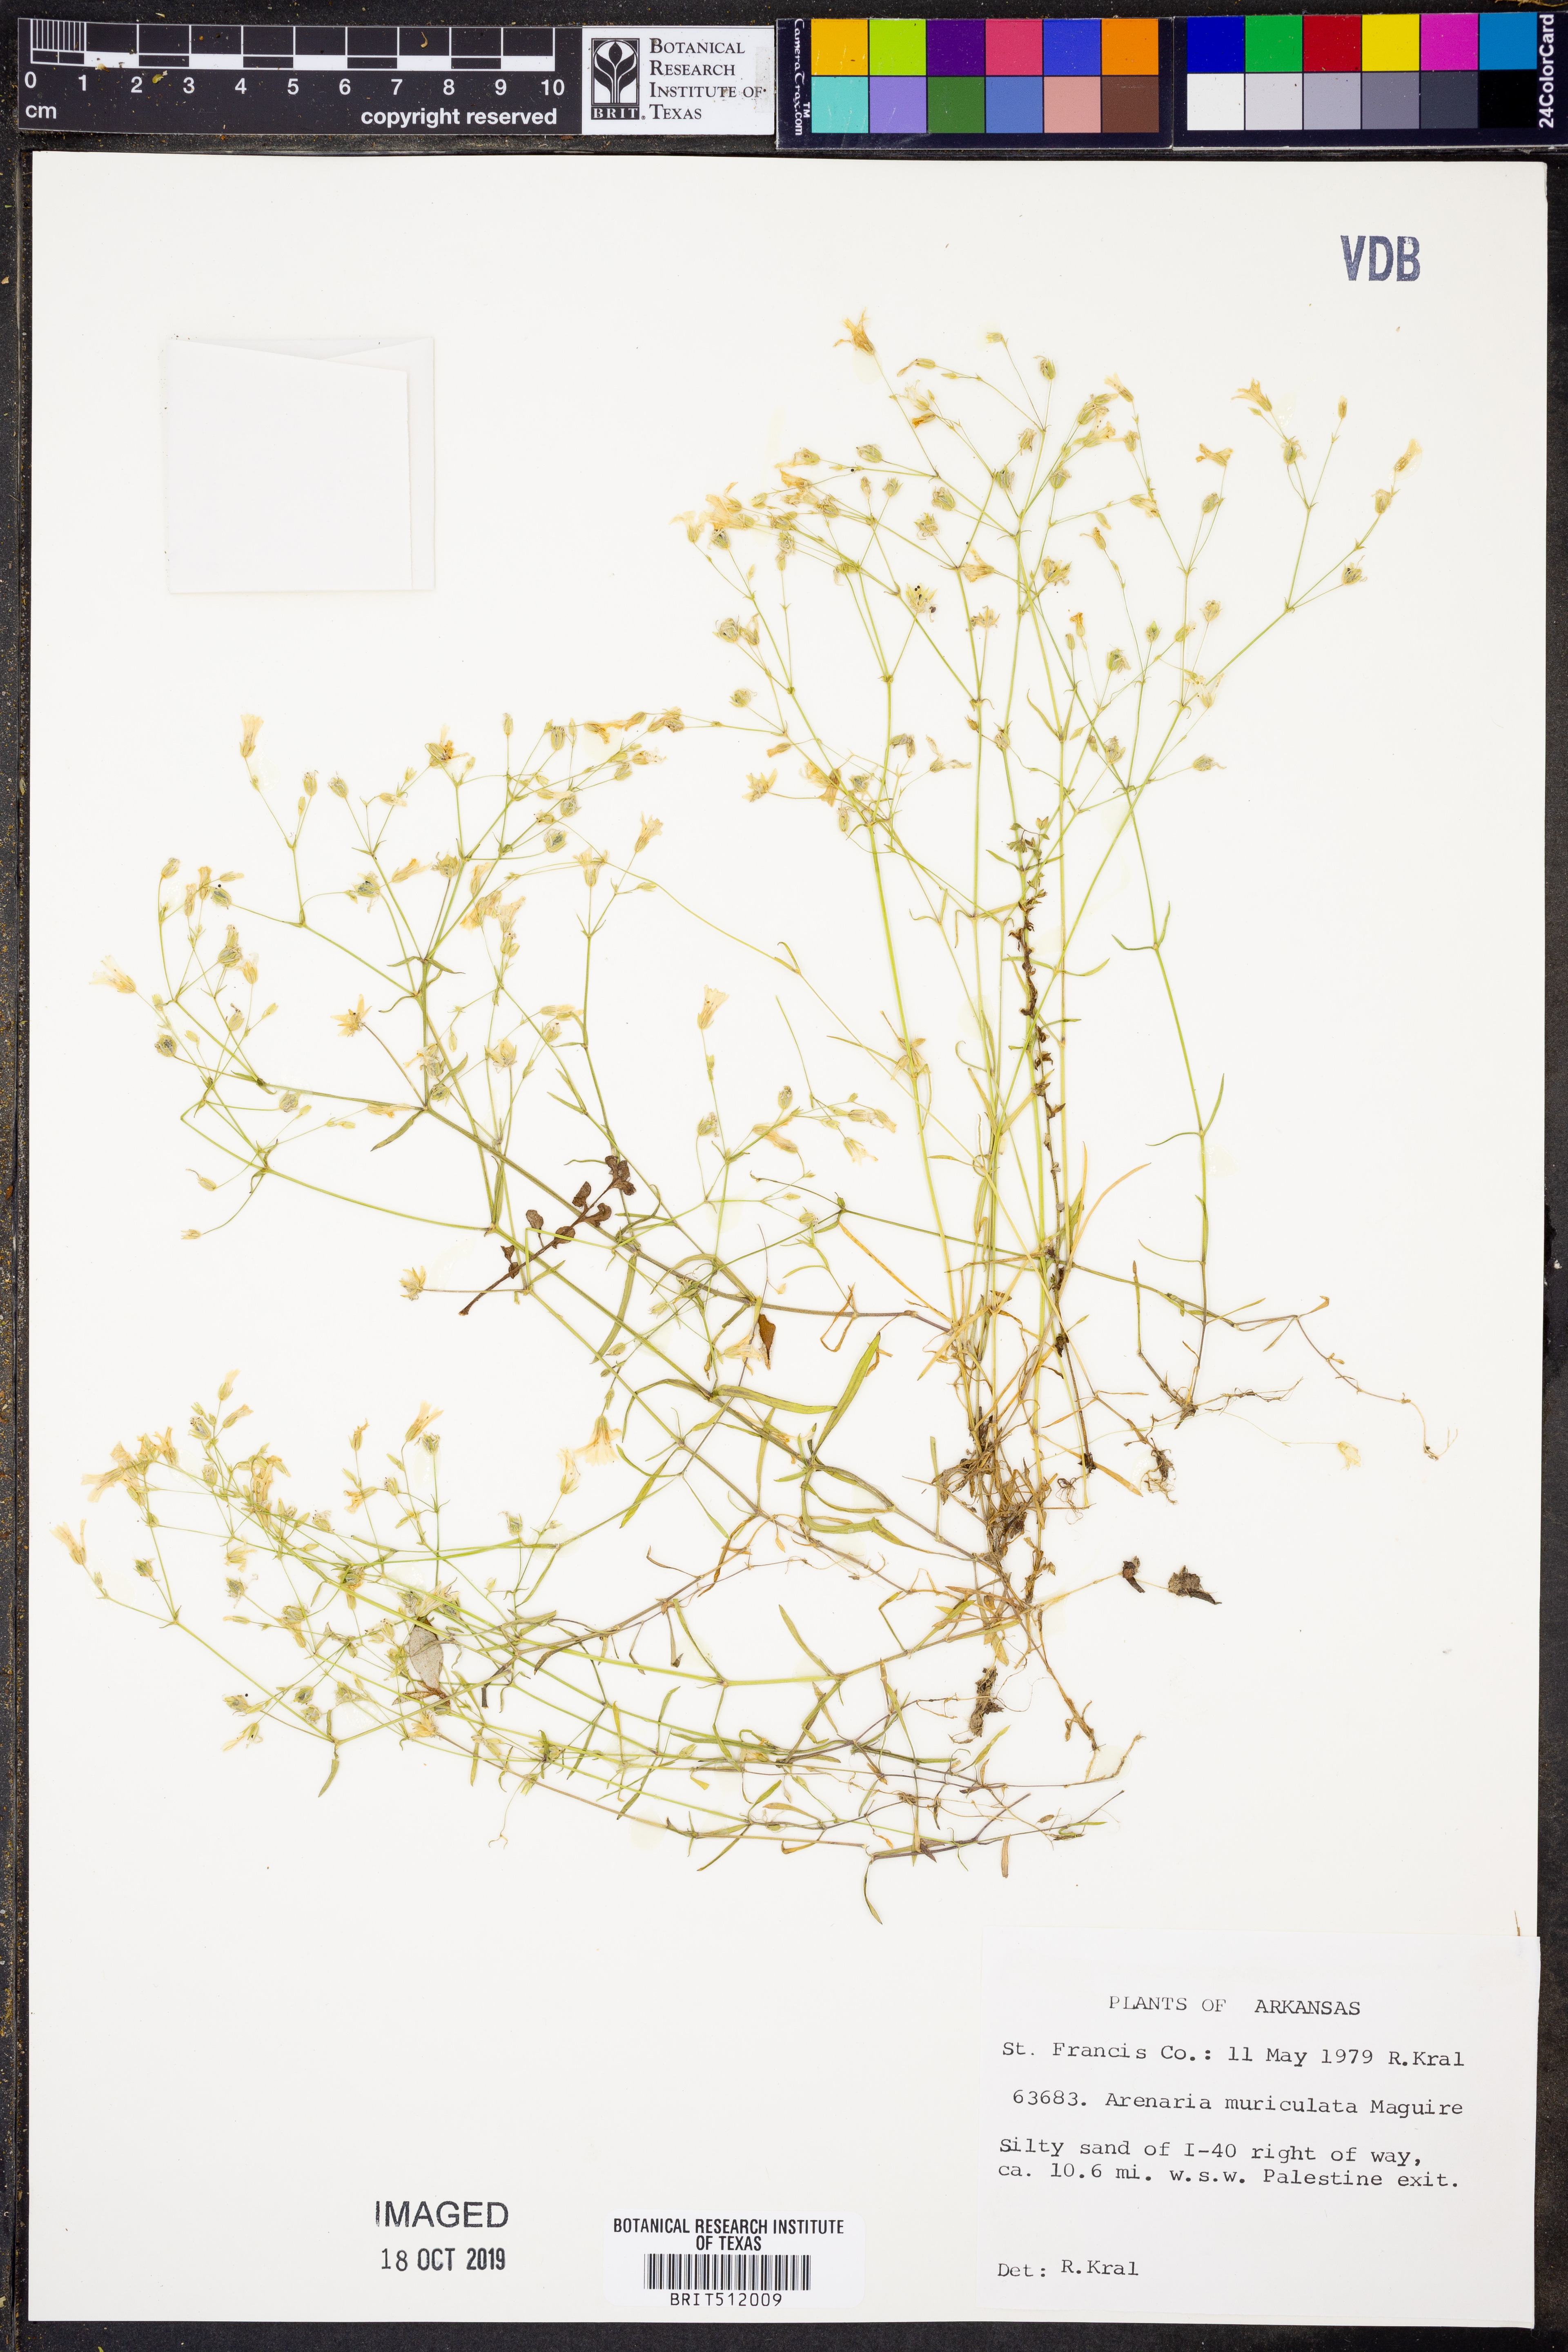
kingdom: Plantae
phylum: Tracheophyta
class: Magnoliopsida
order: Caryophyllales
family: Caryophyllaceae
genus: Mononeuria
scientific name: Mononeuria muscorum
